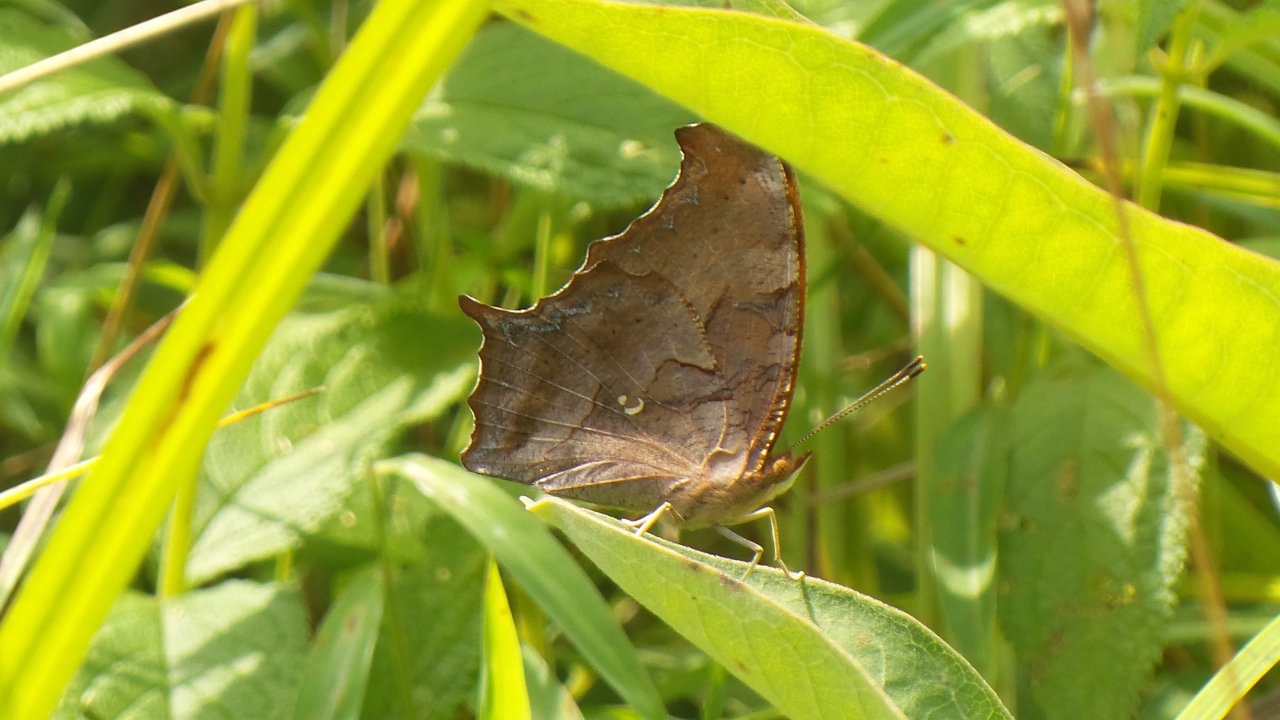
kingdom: Animalia
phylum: Arthropoda
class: Insecta
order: Lepidoptera
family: Nymphalidae
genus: Polygonia
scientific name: Polygonia interrogationis
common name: Question Mark
